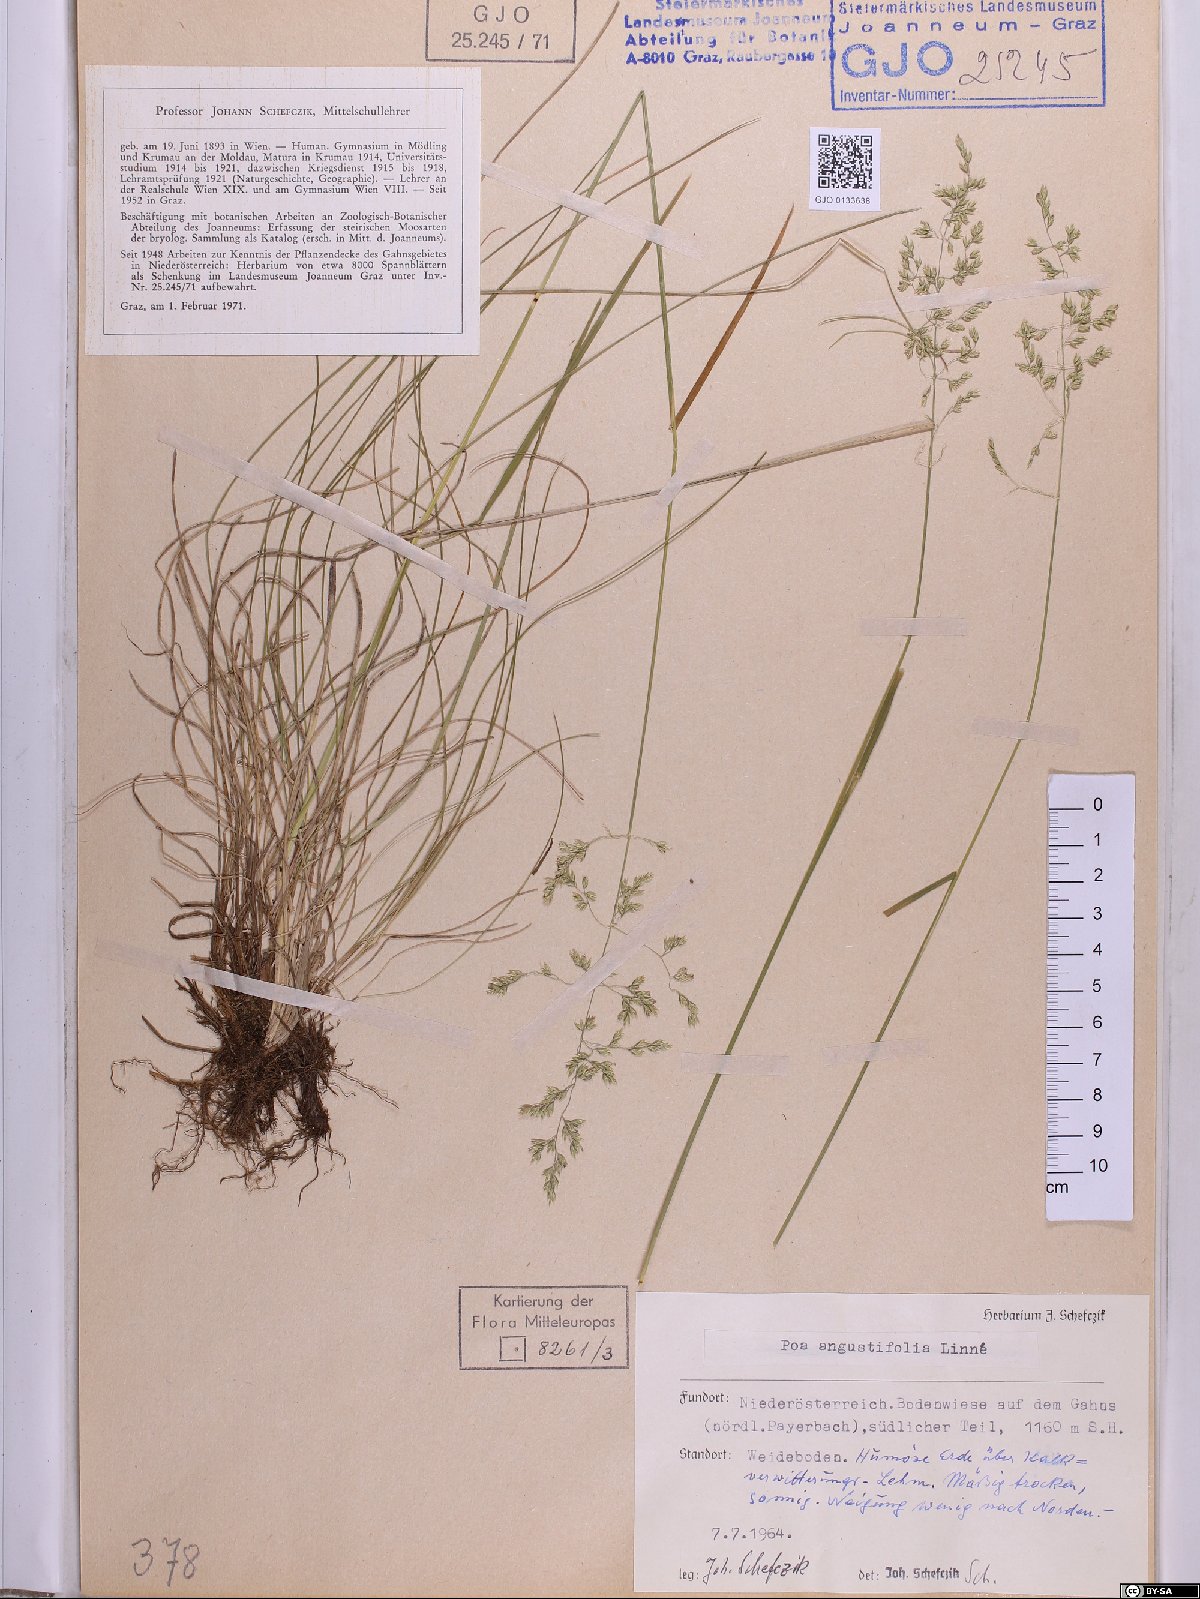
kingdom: Plantae
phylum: Tracheophyta
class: Liliopsida
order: Poales
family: Poaceae
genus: Poa
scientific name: Poa angustifolia
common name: Narrow-leaved meadow-grass
